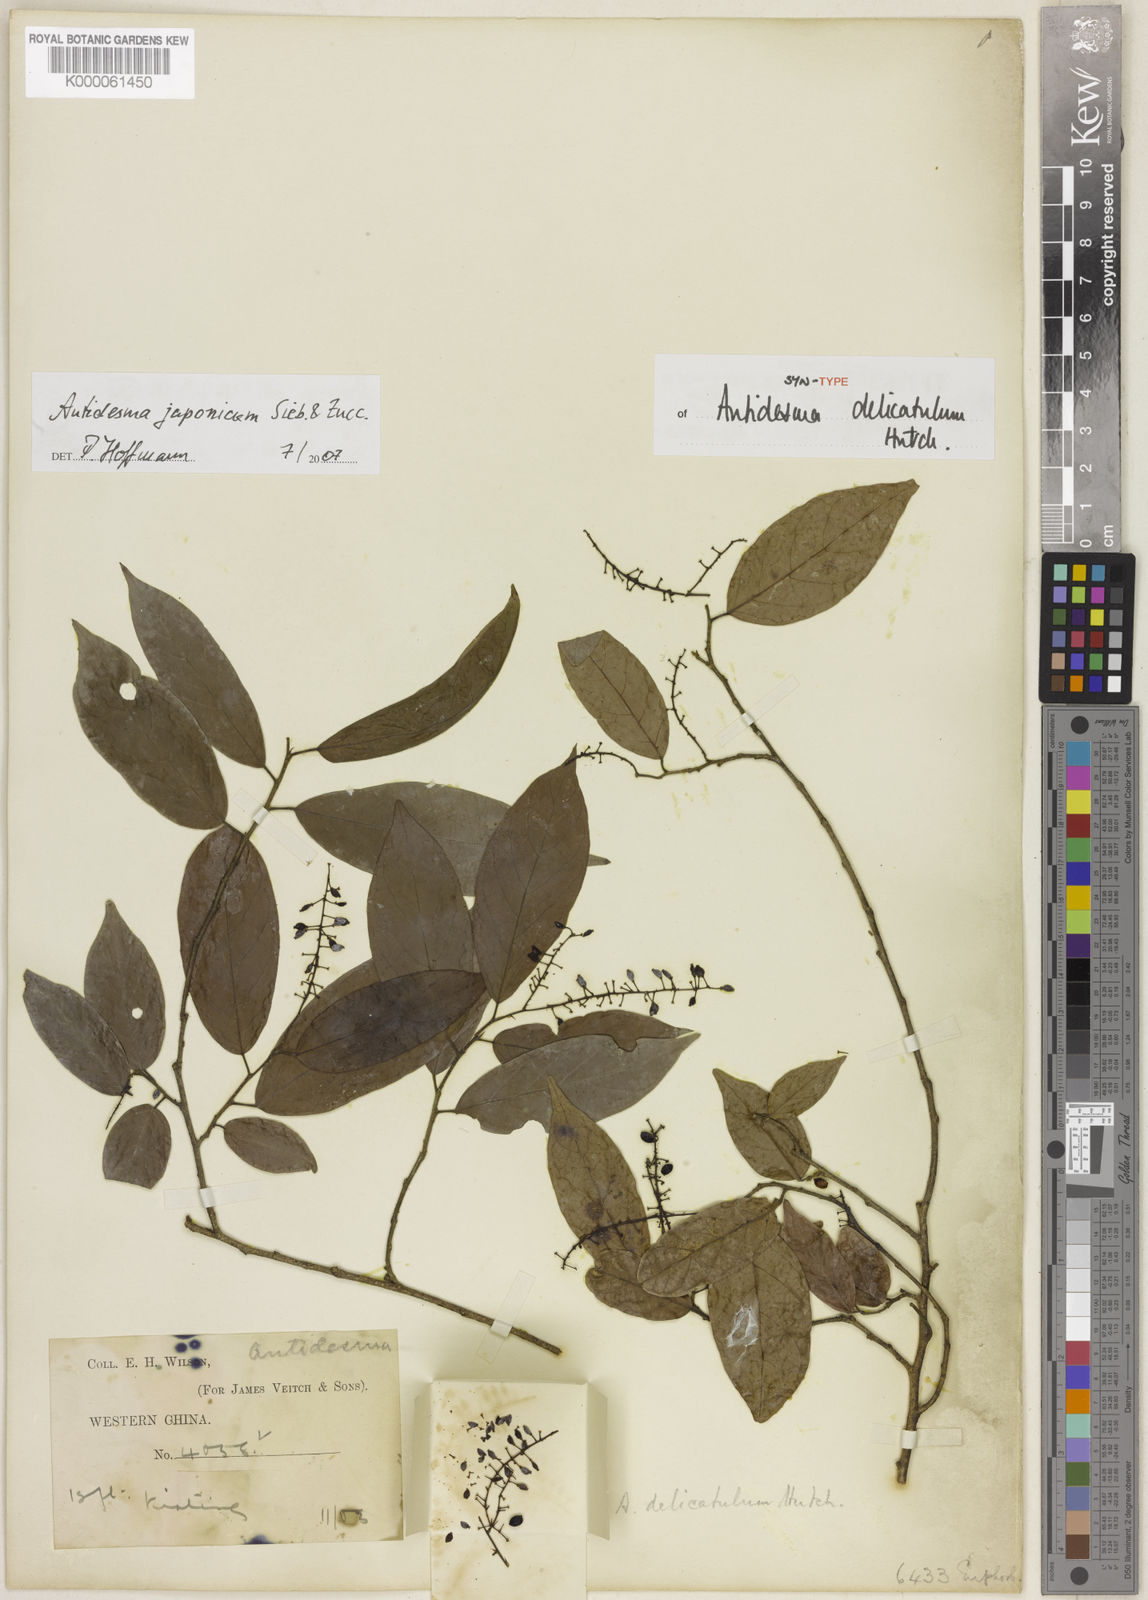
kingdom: Plantae
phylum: Tracheophyta
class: Magnoliopsida
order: Malpighiales
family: Phyllanthaceae
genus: Antidesma
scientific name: Antidesma japonicum
